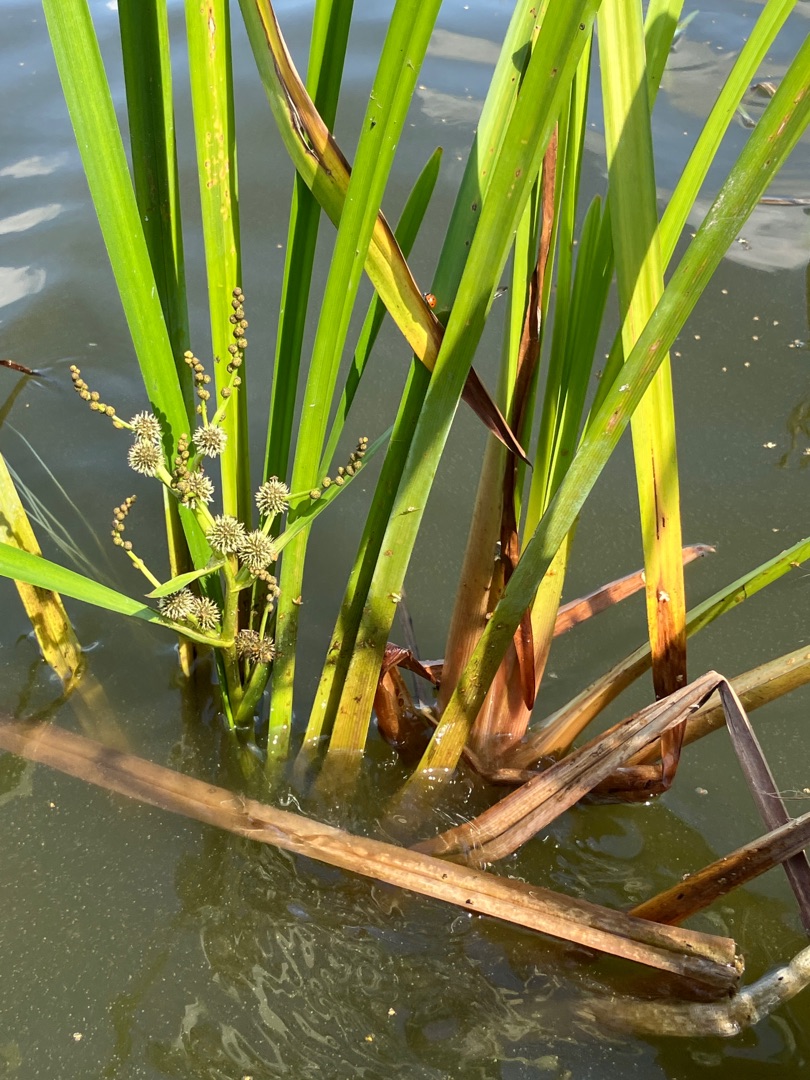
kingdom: Plantae
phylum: Tracheophyta
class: Liliopsida
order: Poales
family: Typhaceae
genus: Sparganium
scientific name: Sparganium erectum
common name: Grenet pindsvineknop
